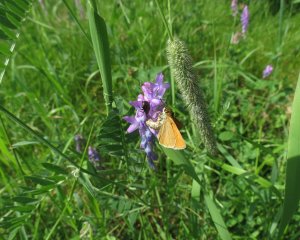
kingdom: Animalia
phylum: Arthropoda
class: Insecta
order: Lepidoptera
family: Hesperiidae
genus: Thymelicus
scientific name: Thymelicus lineola
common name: European Skipper
